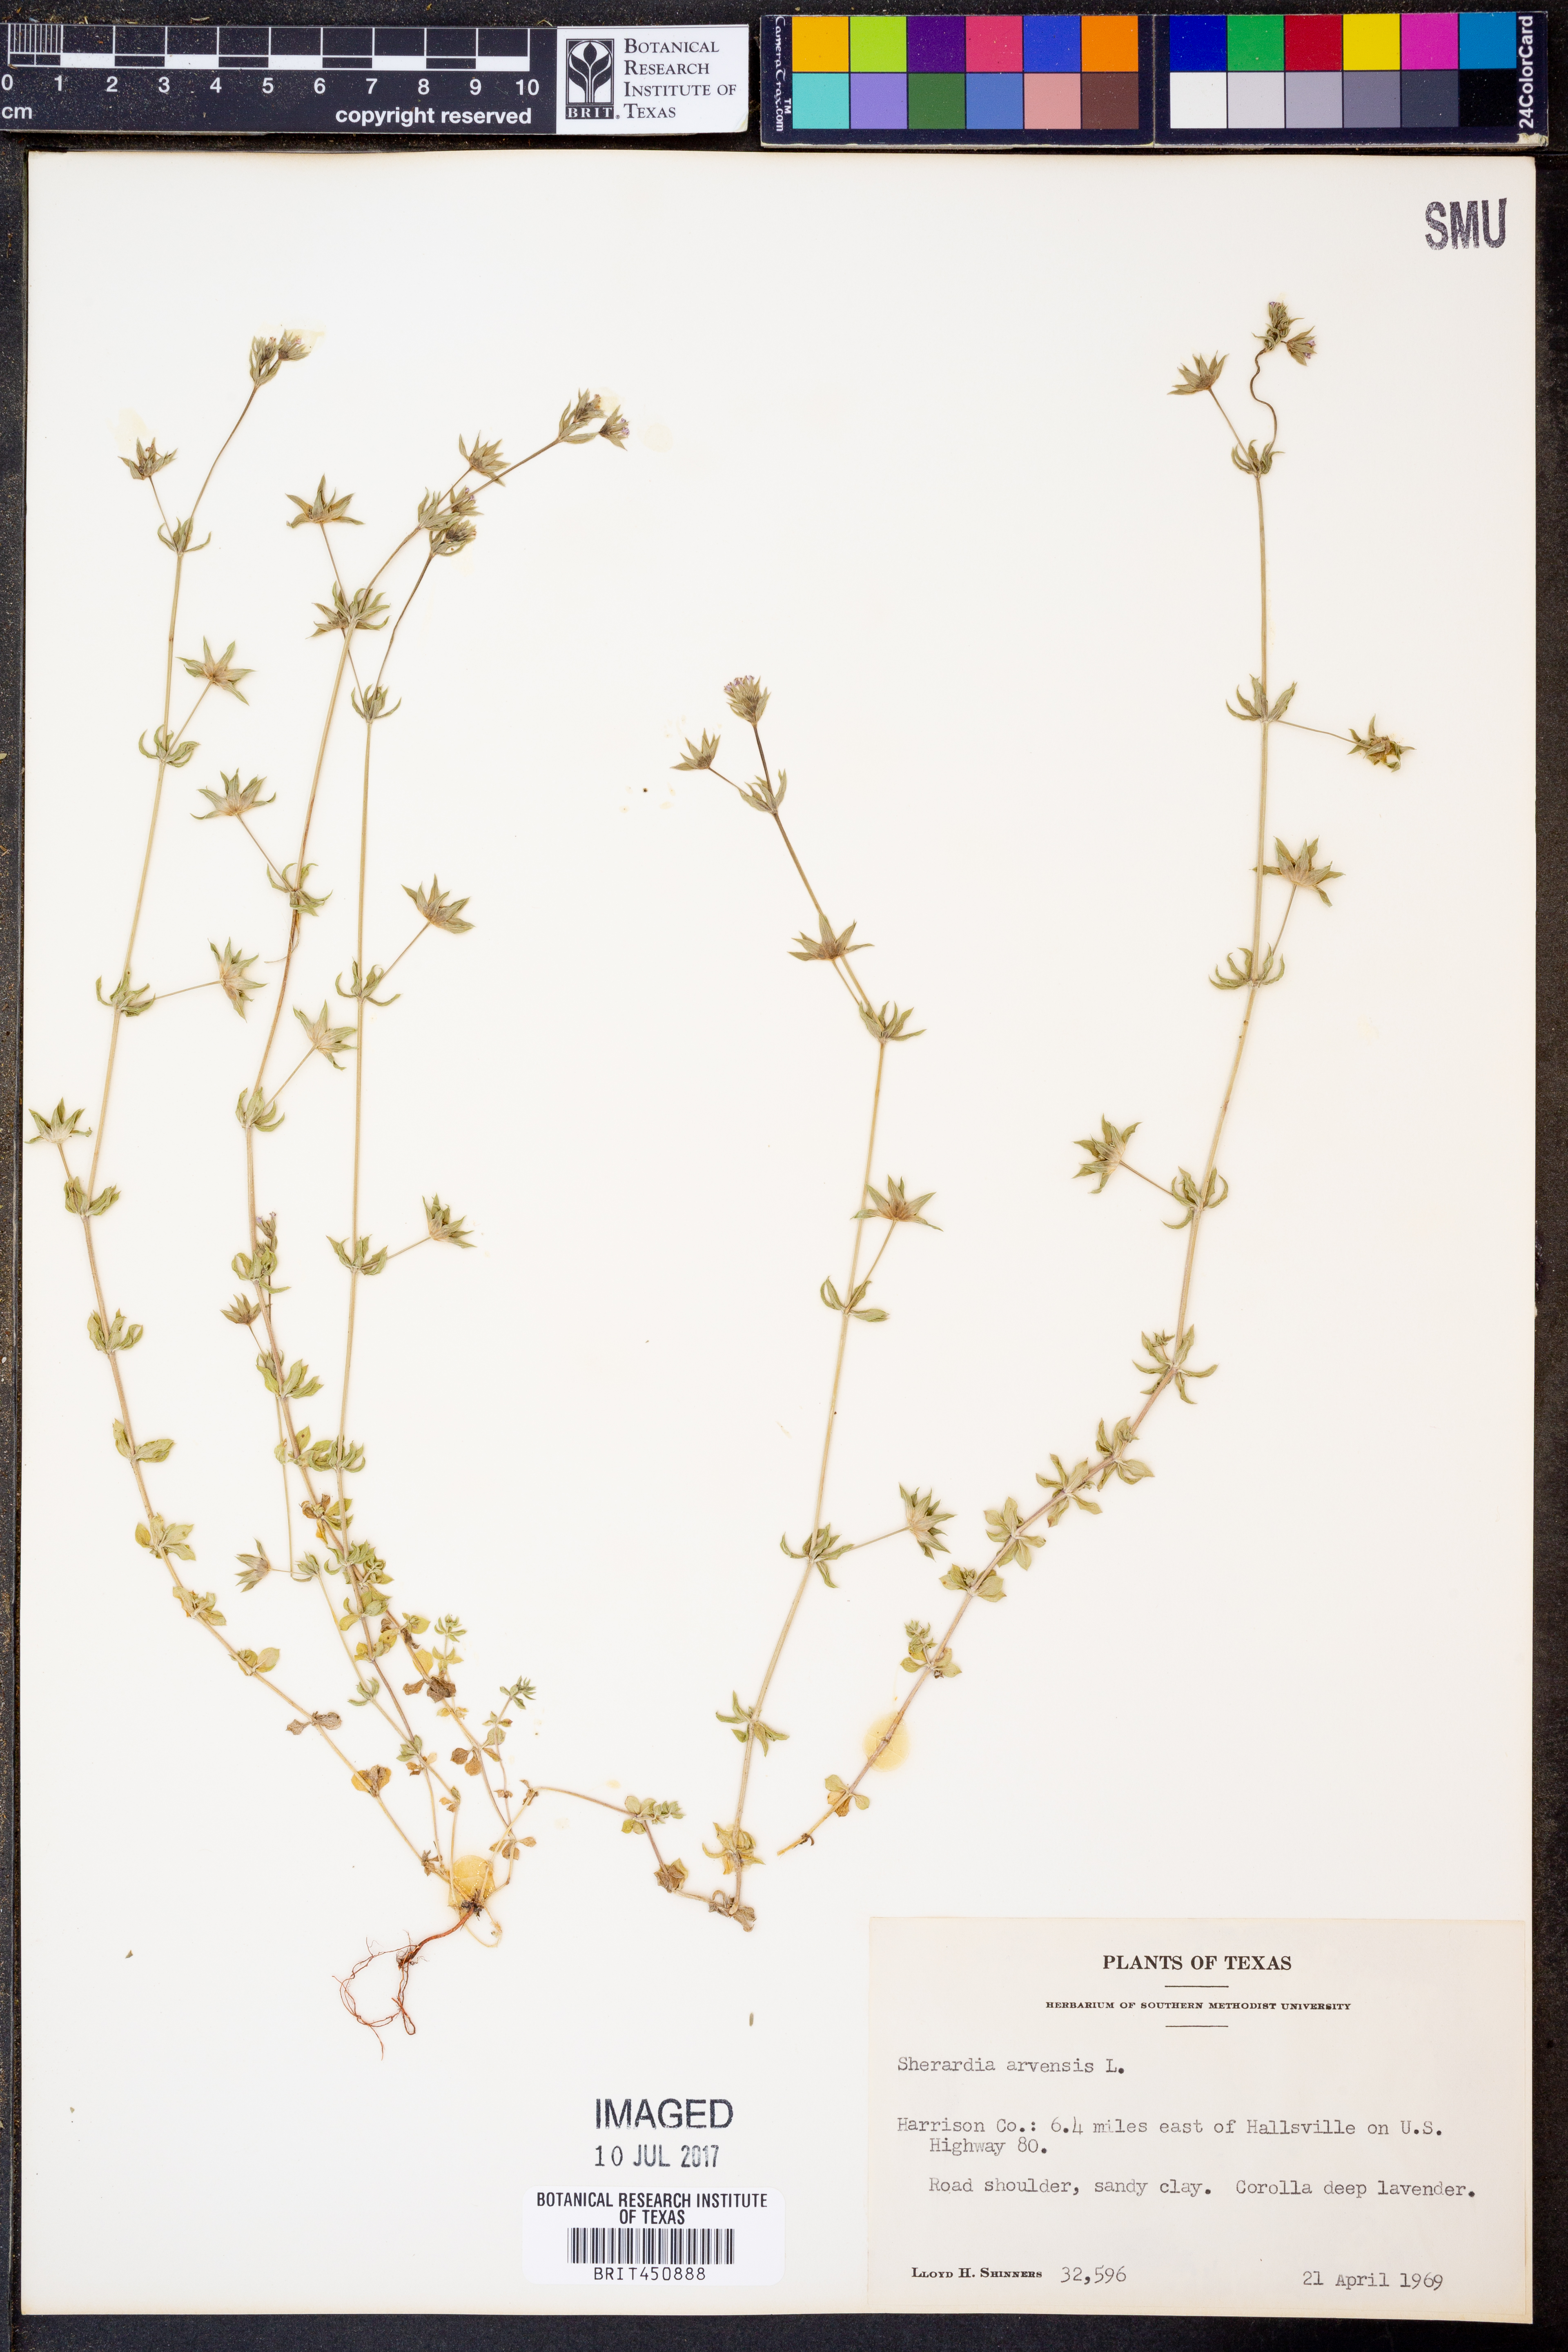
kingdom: Plantae
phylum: Tracheophyta
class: Magnoliopsida
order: Gentianales
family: Rubiaceae
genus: Sherardia
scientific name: Sherardia arvensis
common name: Field madder
